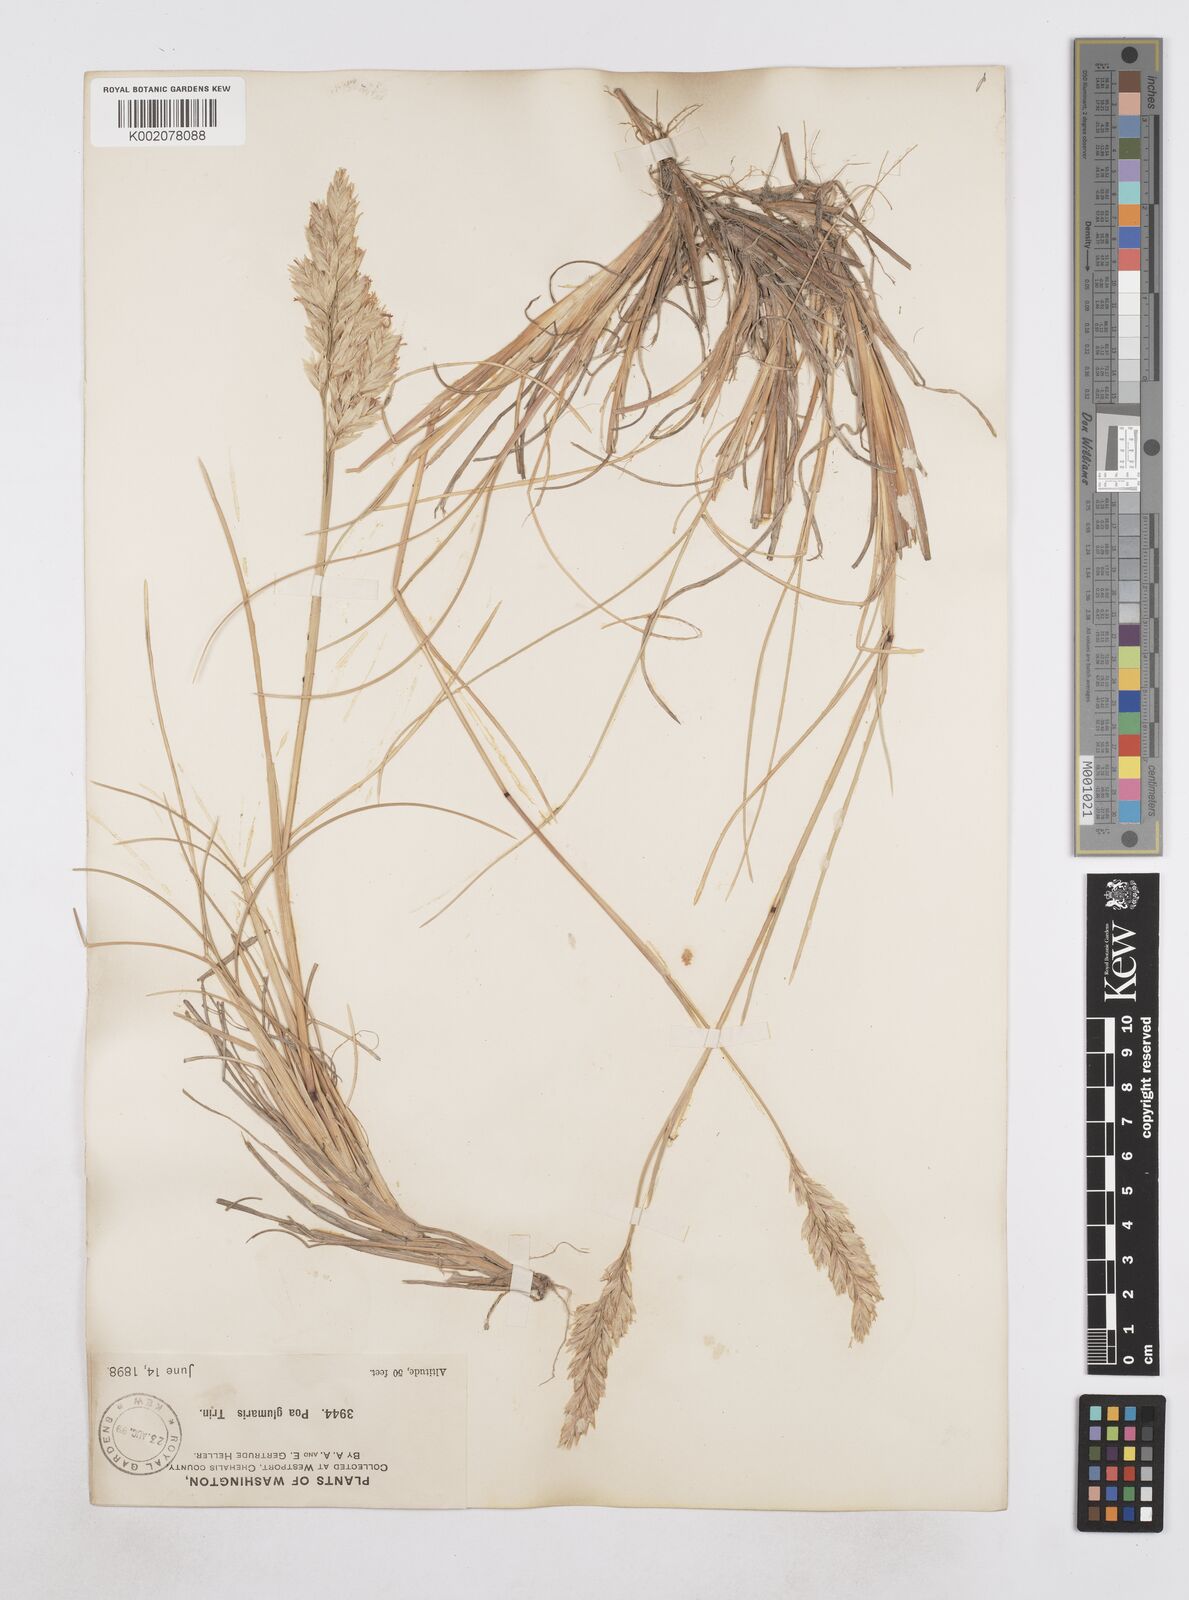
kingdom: Plantae
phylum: Tracheophyta
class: Liliopsida
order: Poales
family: Poaceae
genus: Poa
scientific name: Poa
